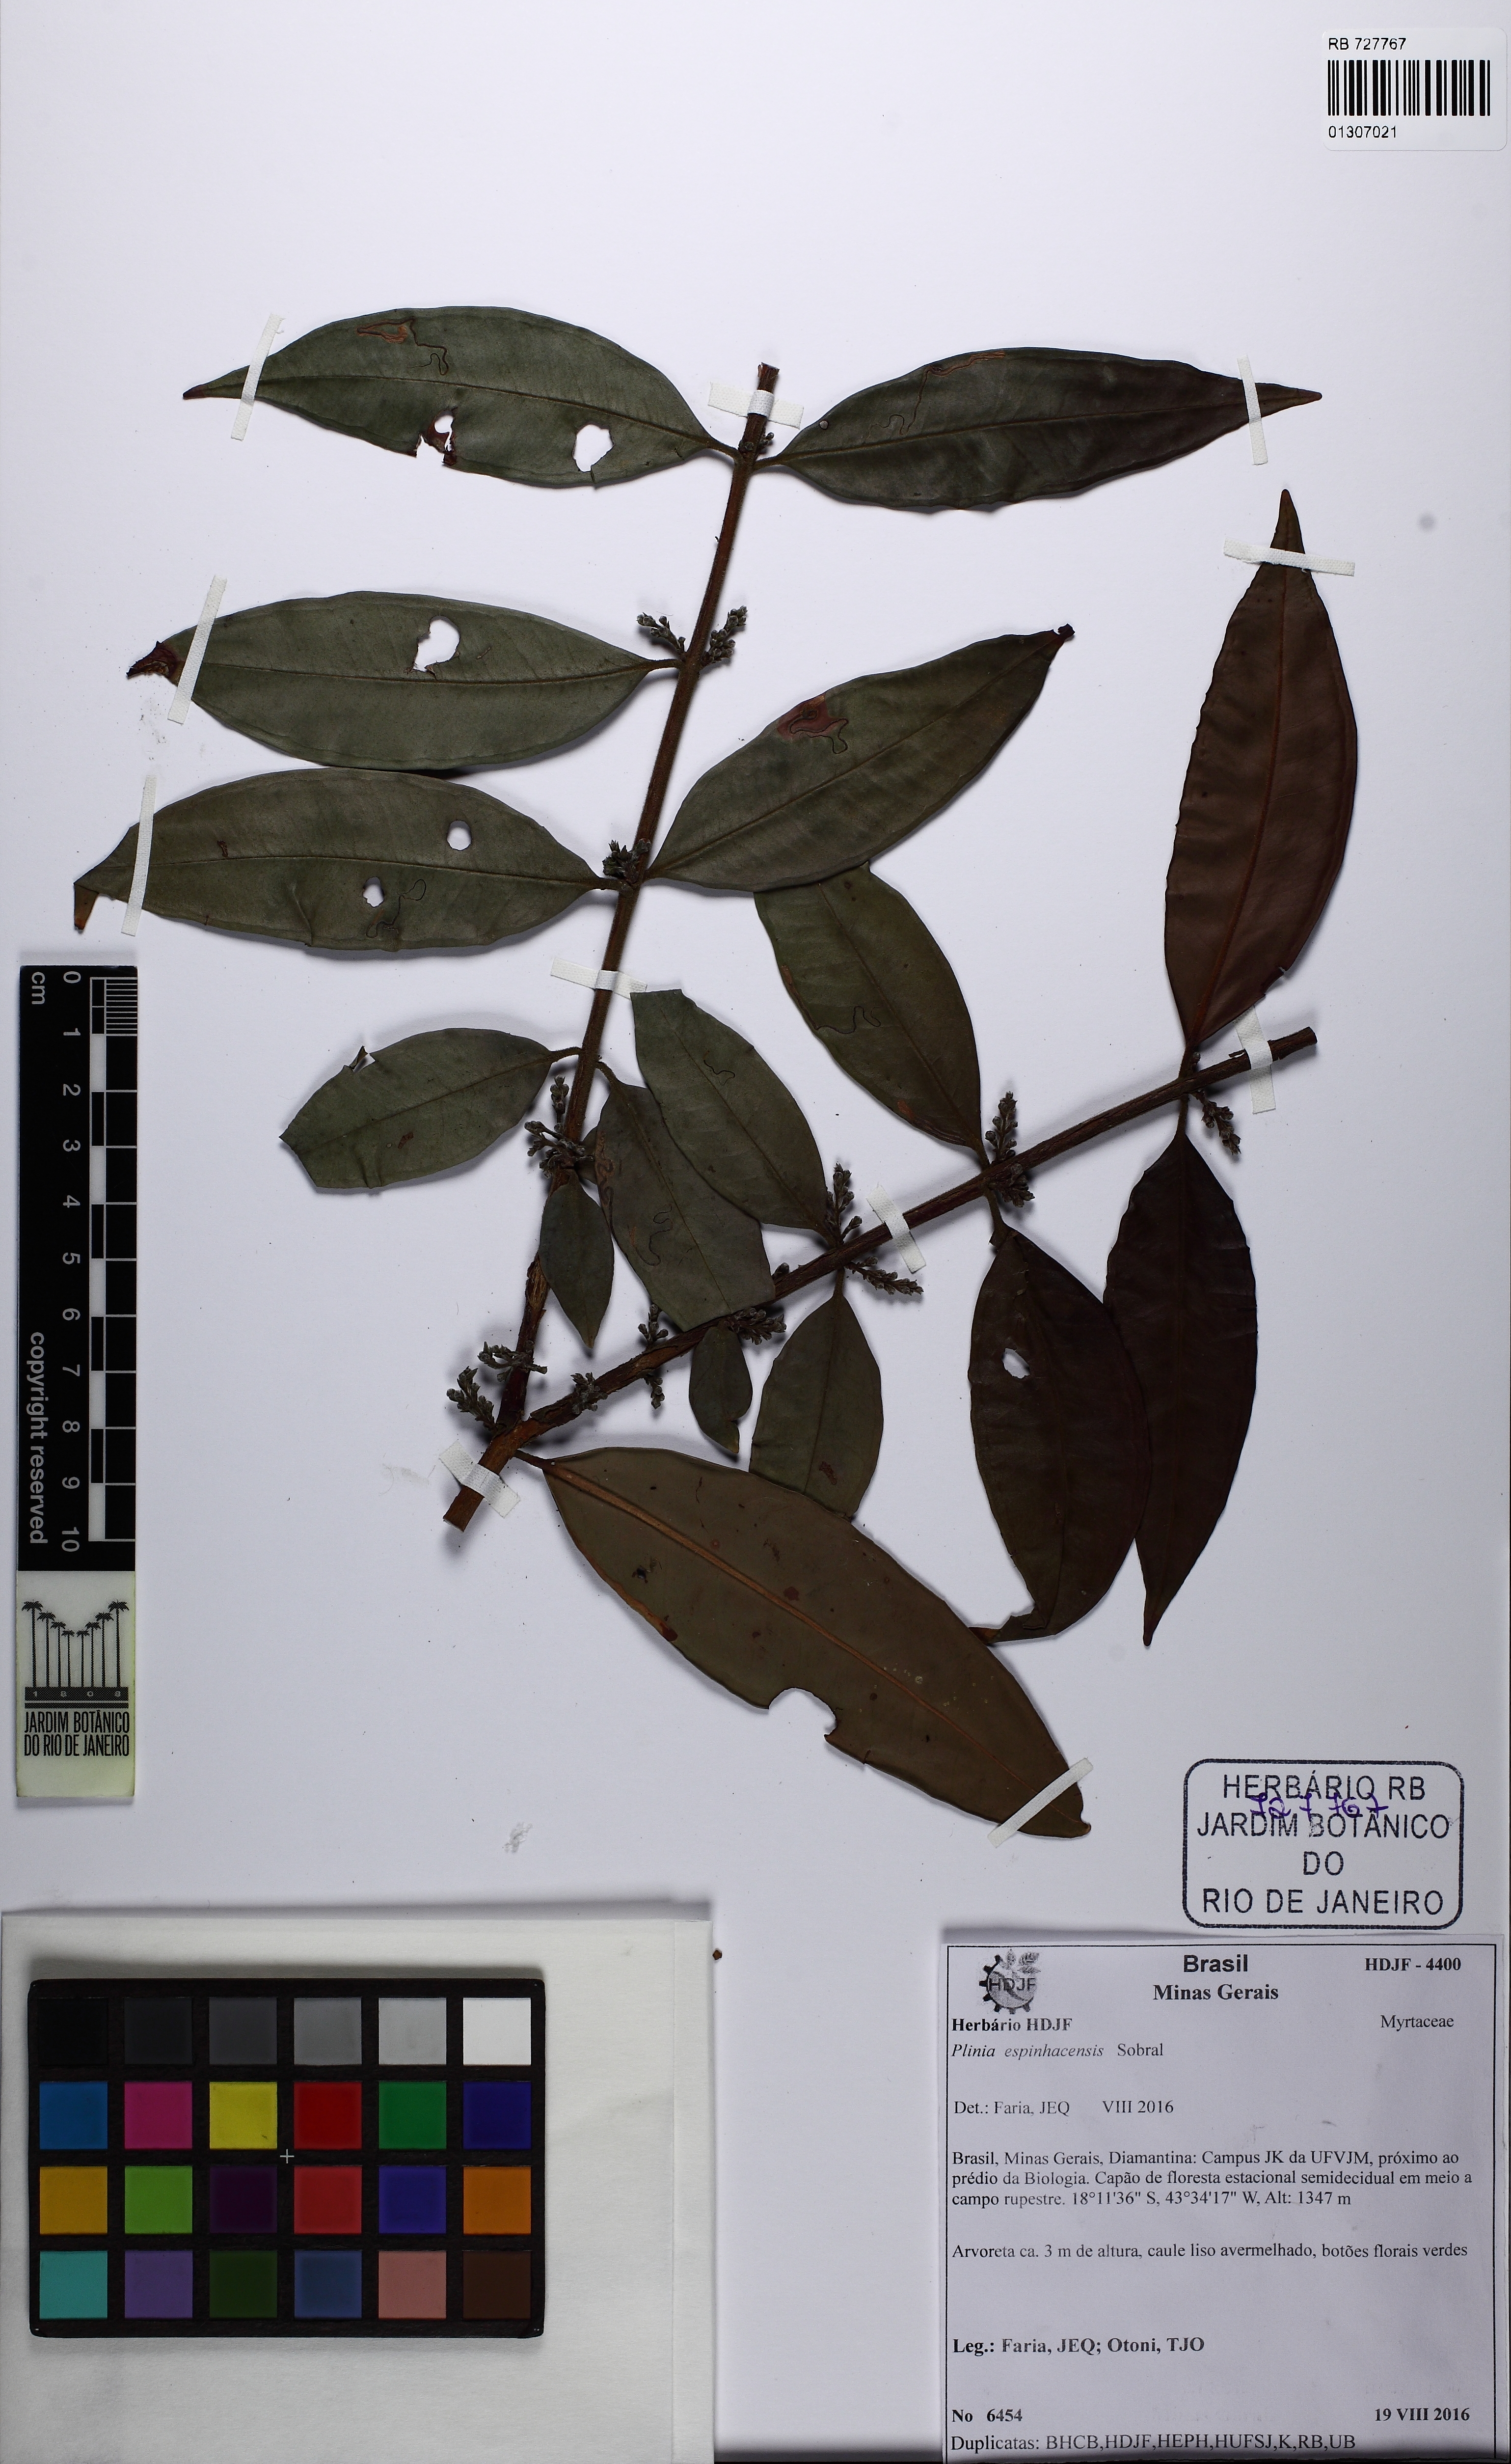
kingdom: Plantae
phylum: Tracheophyta
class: Magnoliopsida
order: Myrtales
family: Myrtaceae
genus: Plinia
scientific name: Plinia espinhacensis
